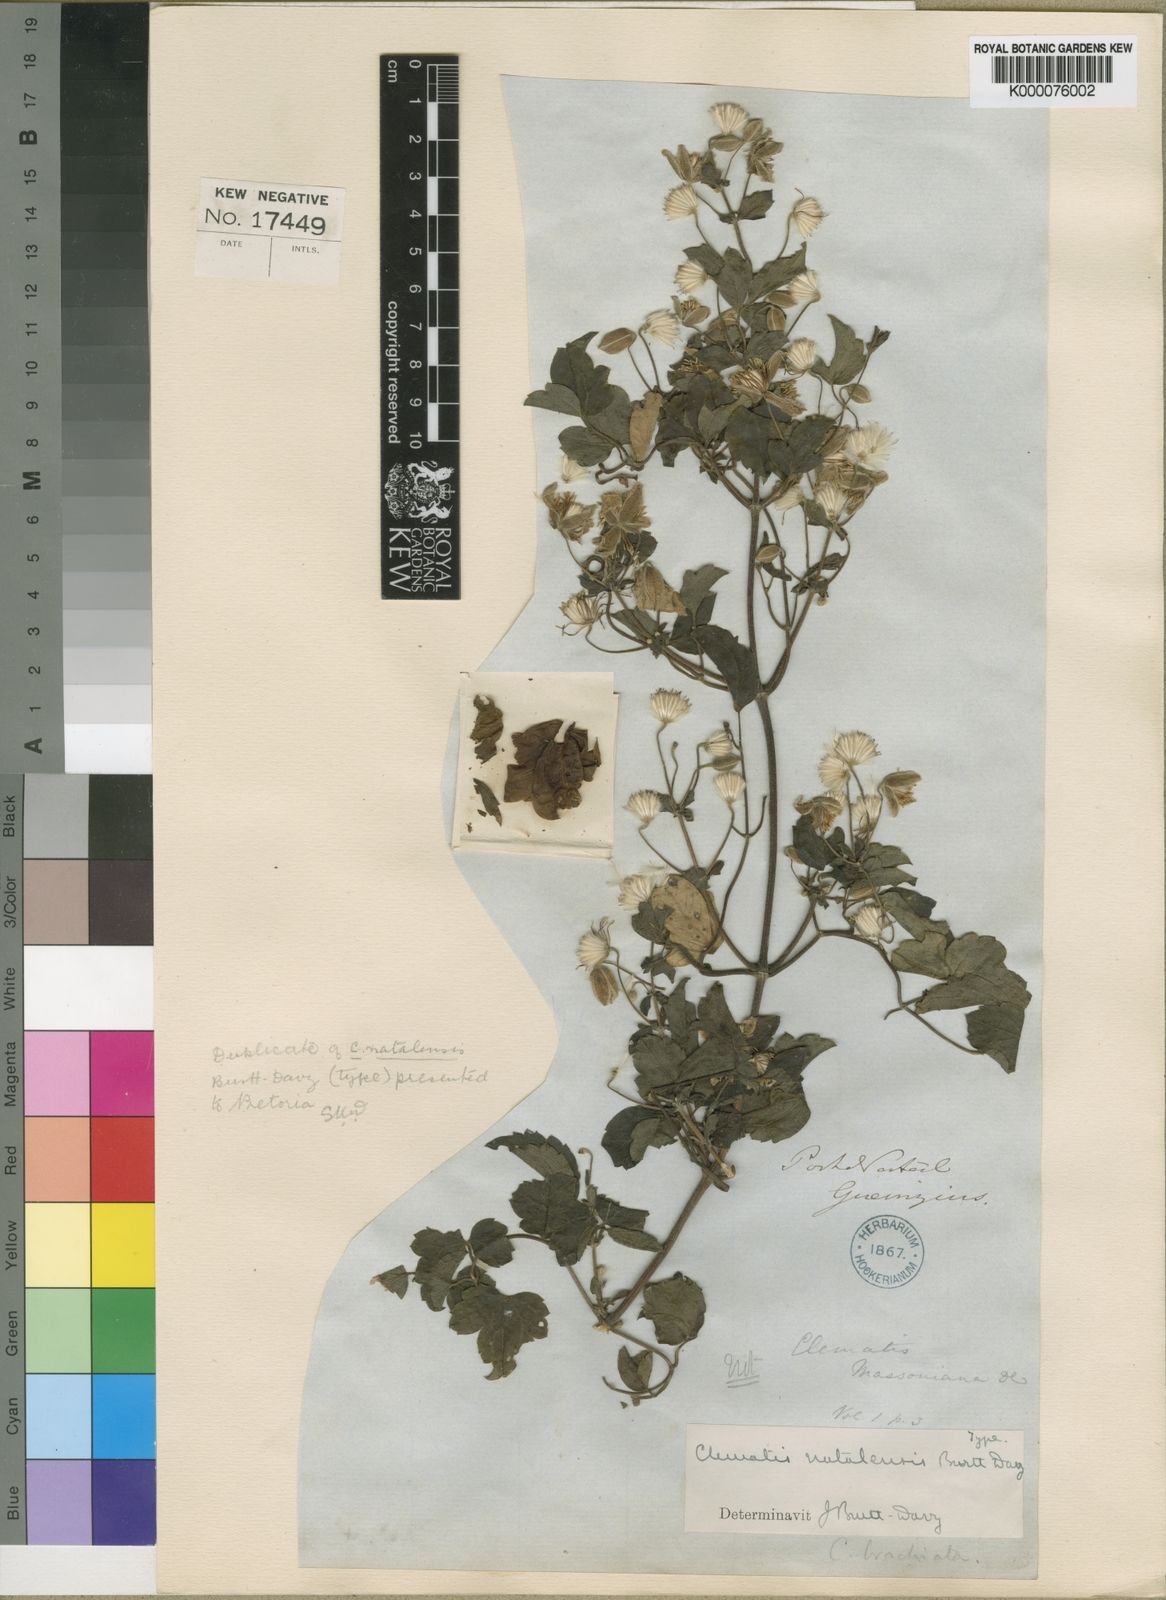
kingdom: Plantae
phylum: Tracheophyta
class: Magnoliopsida
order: Ranunculales
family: Ranunculaceae
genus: Clematis
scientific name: Clematis
